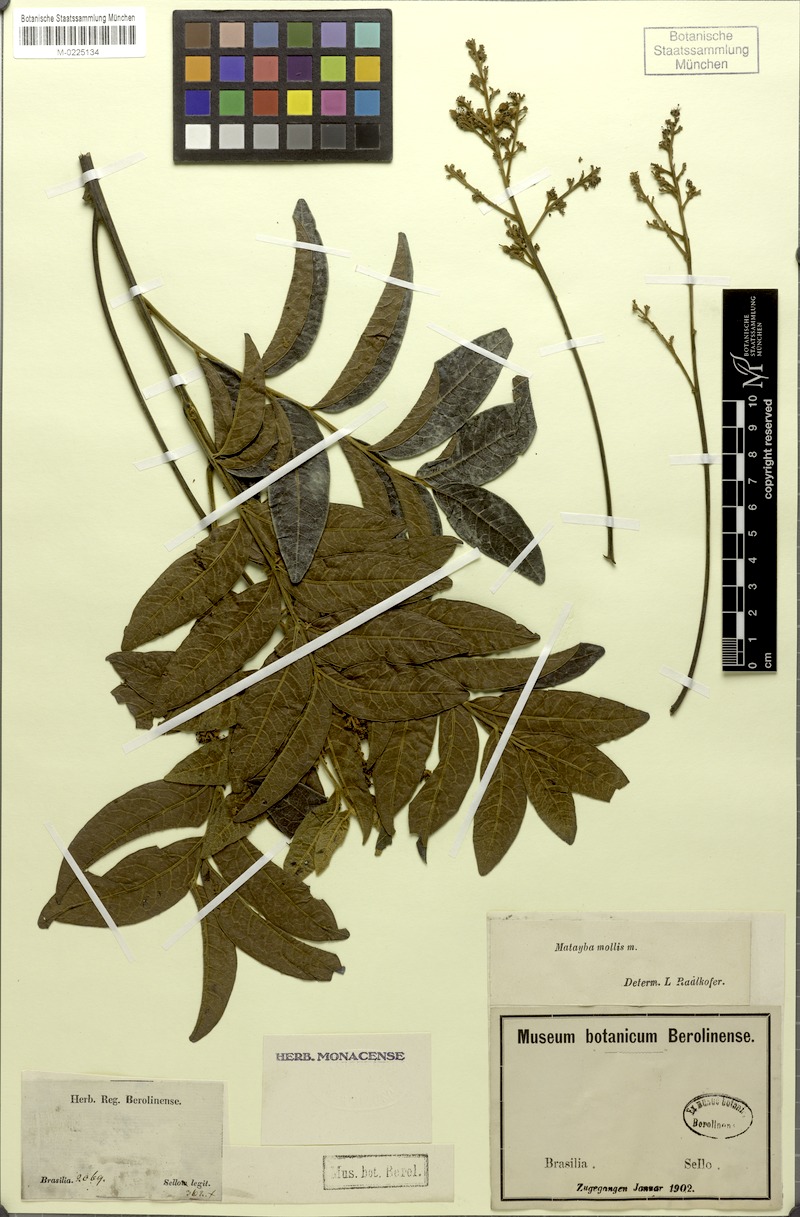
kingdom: Plantae
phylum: Tracheophyta
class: Magnoliopsida
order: Sapindales
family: Sapindaceae
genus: Matayba
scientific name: Matayba mollis
